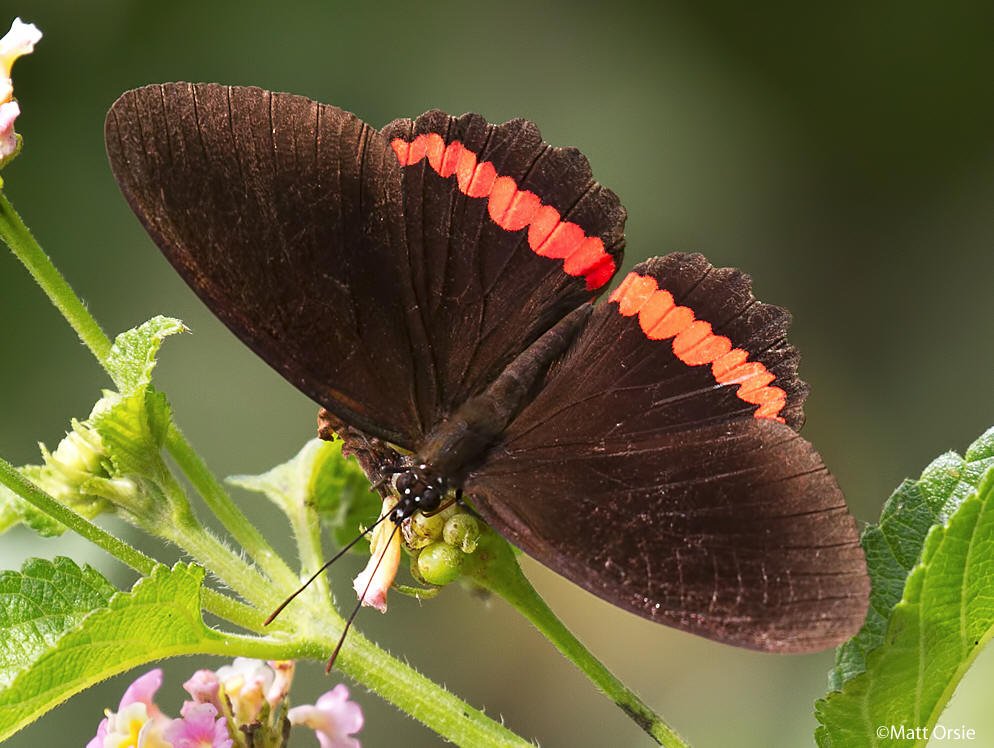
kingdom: Animalia
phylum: Arthropoda
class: Insecta
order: Lepidoptera
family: Sesiidae
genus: Sesia
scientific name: Sesia Biblis hyperia
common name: Red Rim
